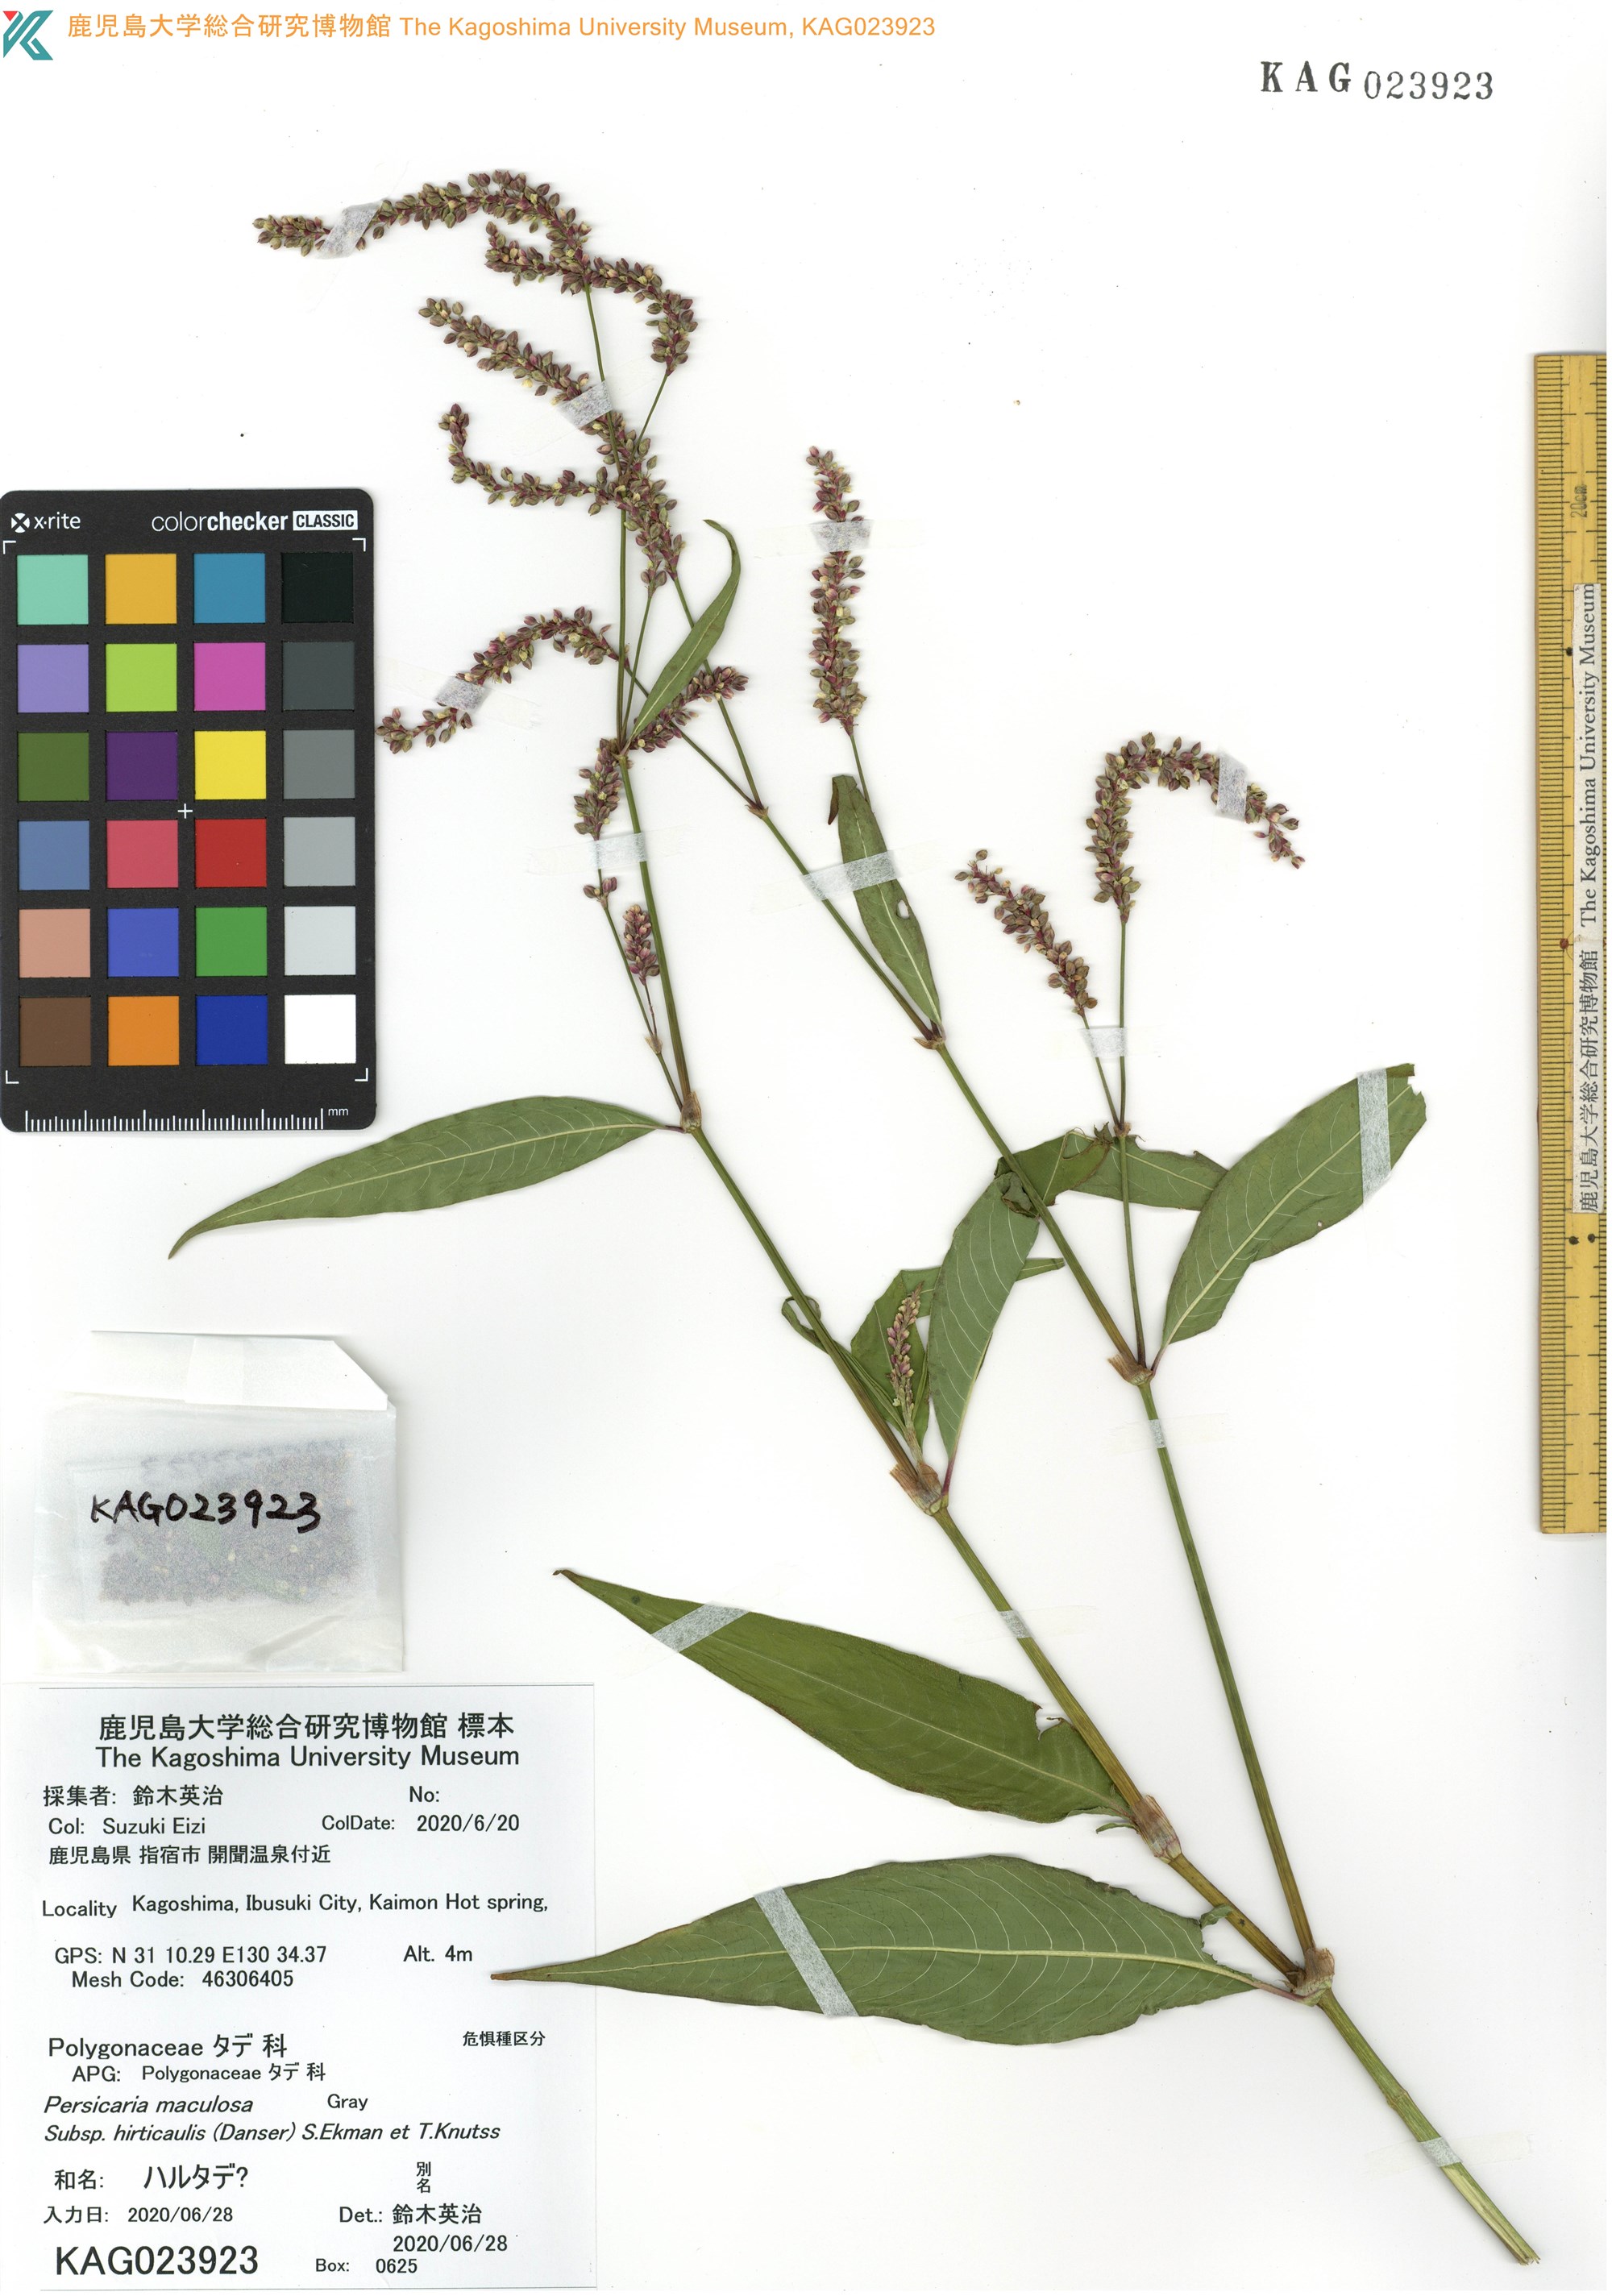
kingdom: Plantae
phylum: Tracheophyta
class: Magnoliopsida
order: Caryophyllales
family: Polygonaceae
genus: Persicaria
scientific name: Persicaria extremiorientalis
